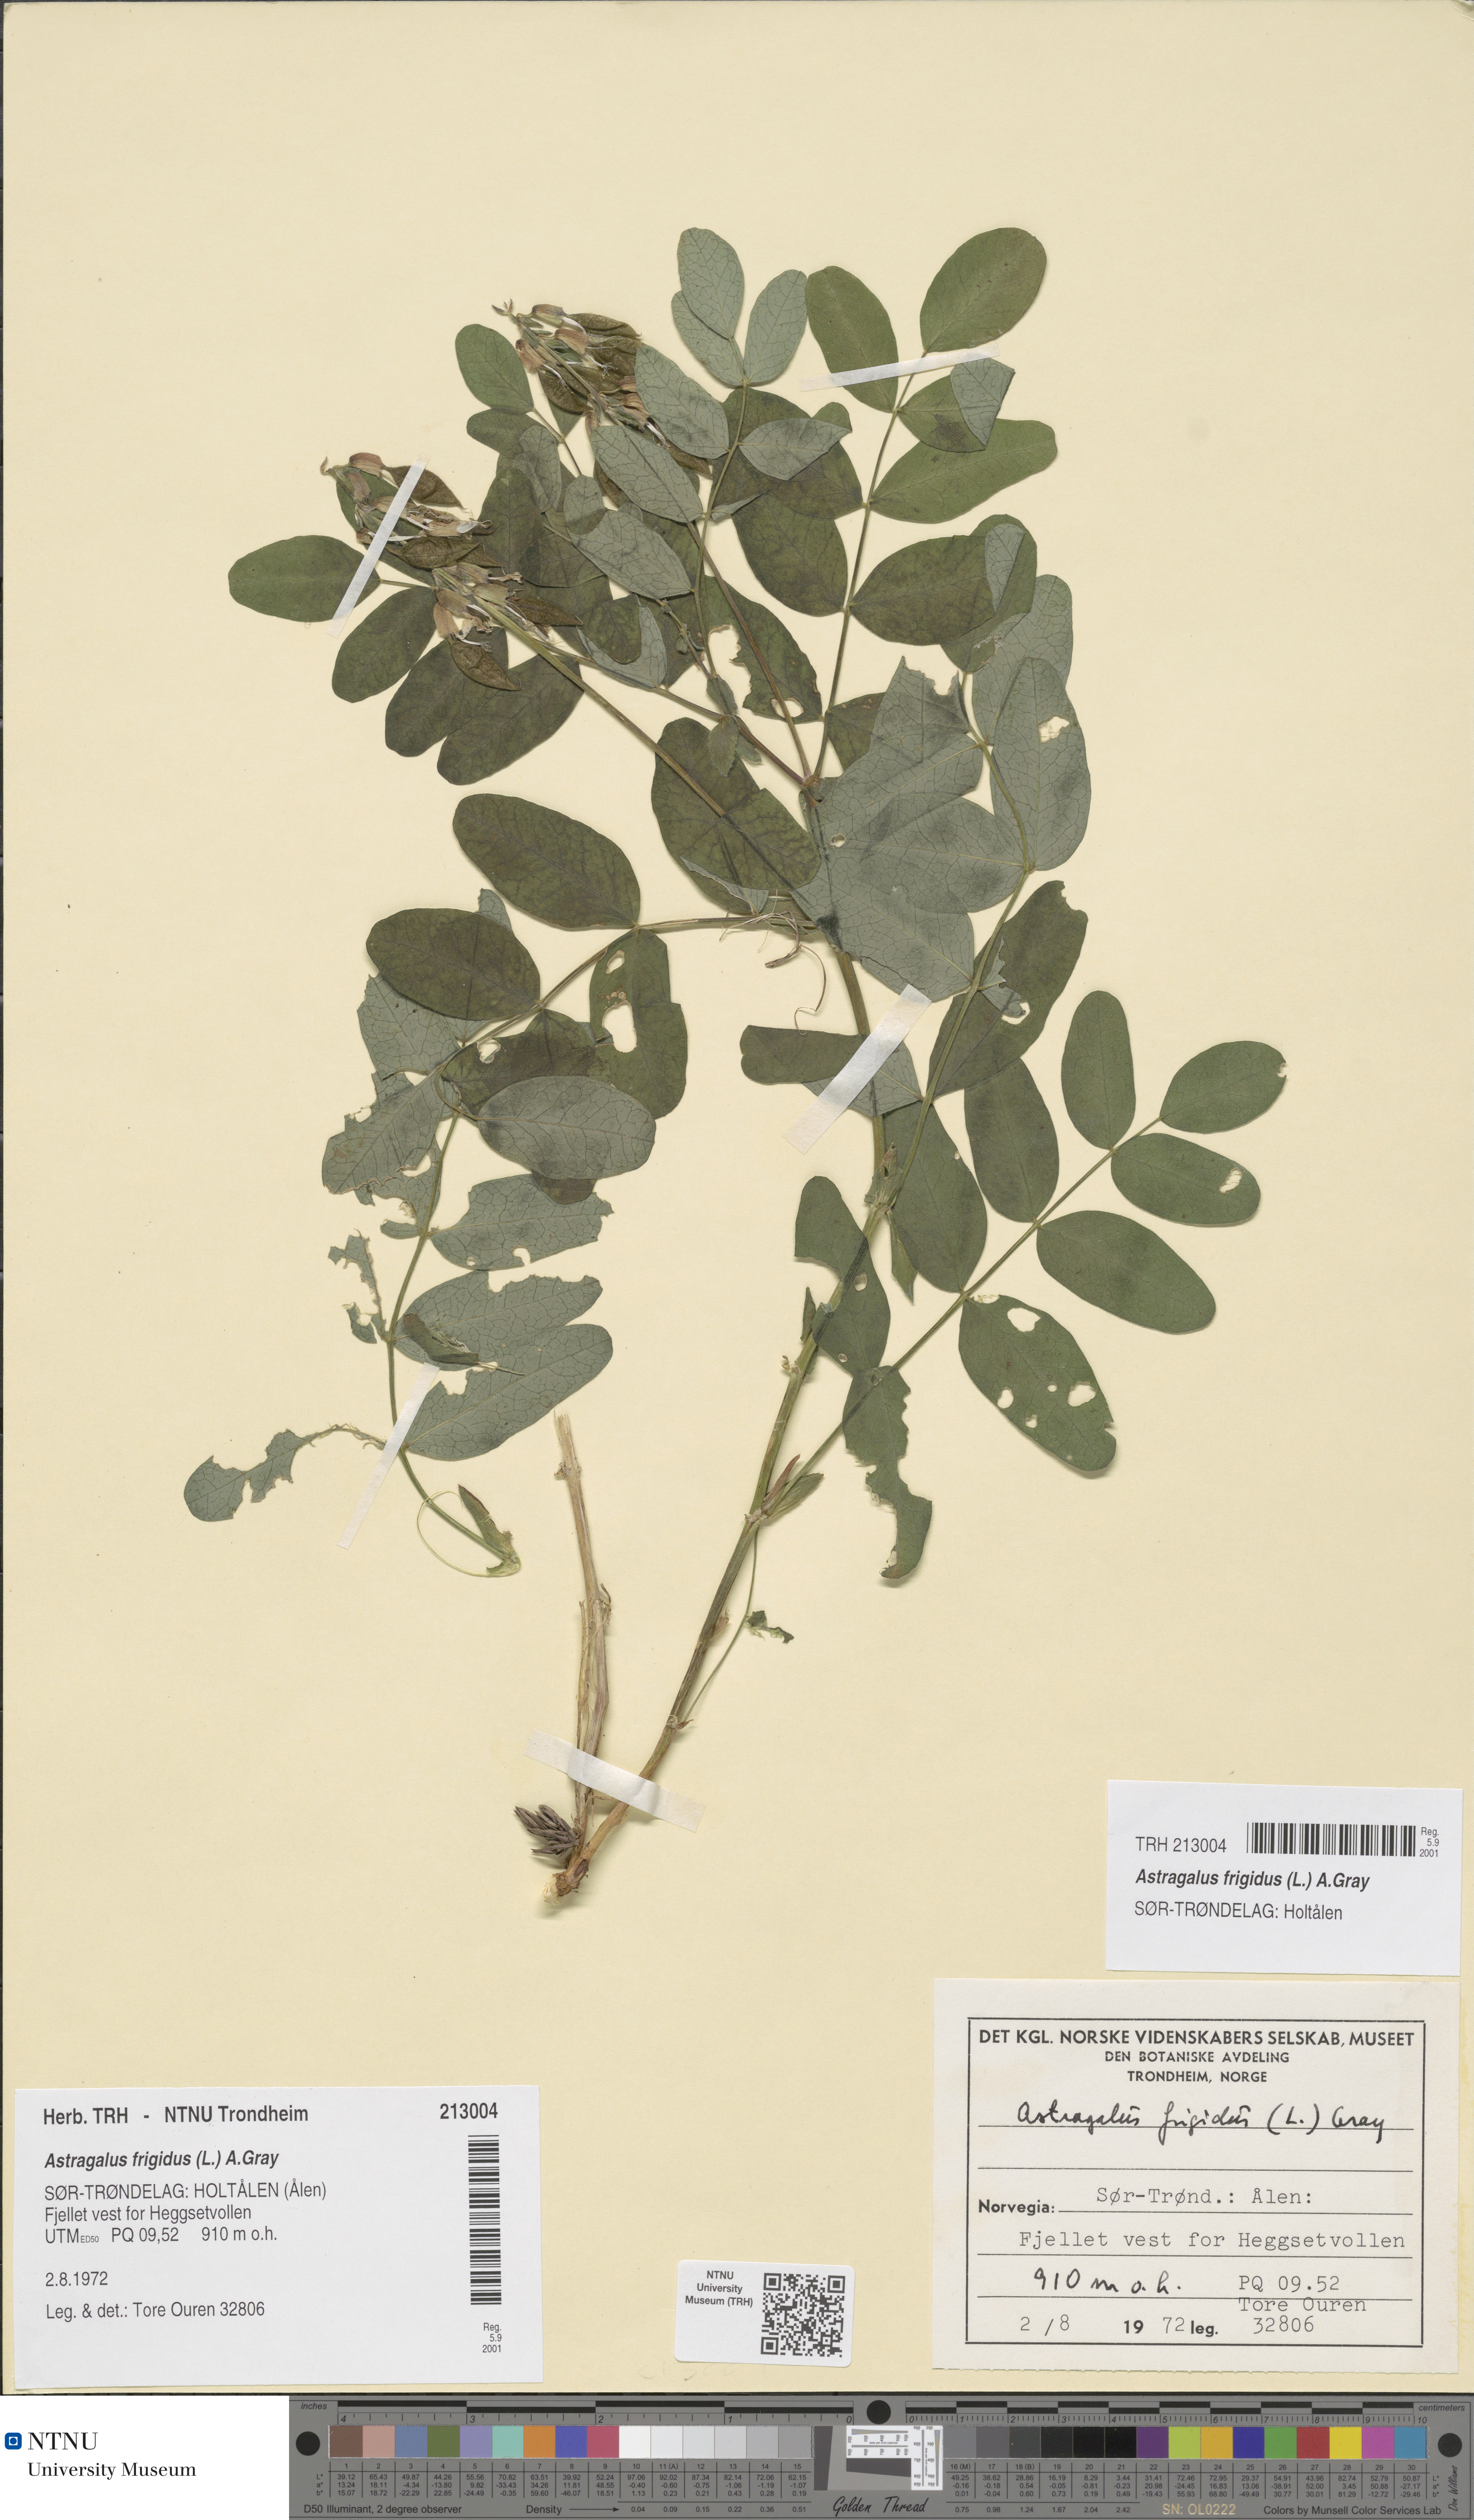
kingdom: Plantae
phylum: Tracheophyta
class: Magnoliopsida
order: Fabales
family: Fabaceae
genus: Astragalus
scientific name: Astragalus frigidus
